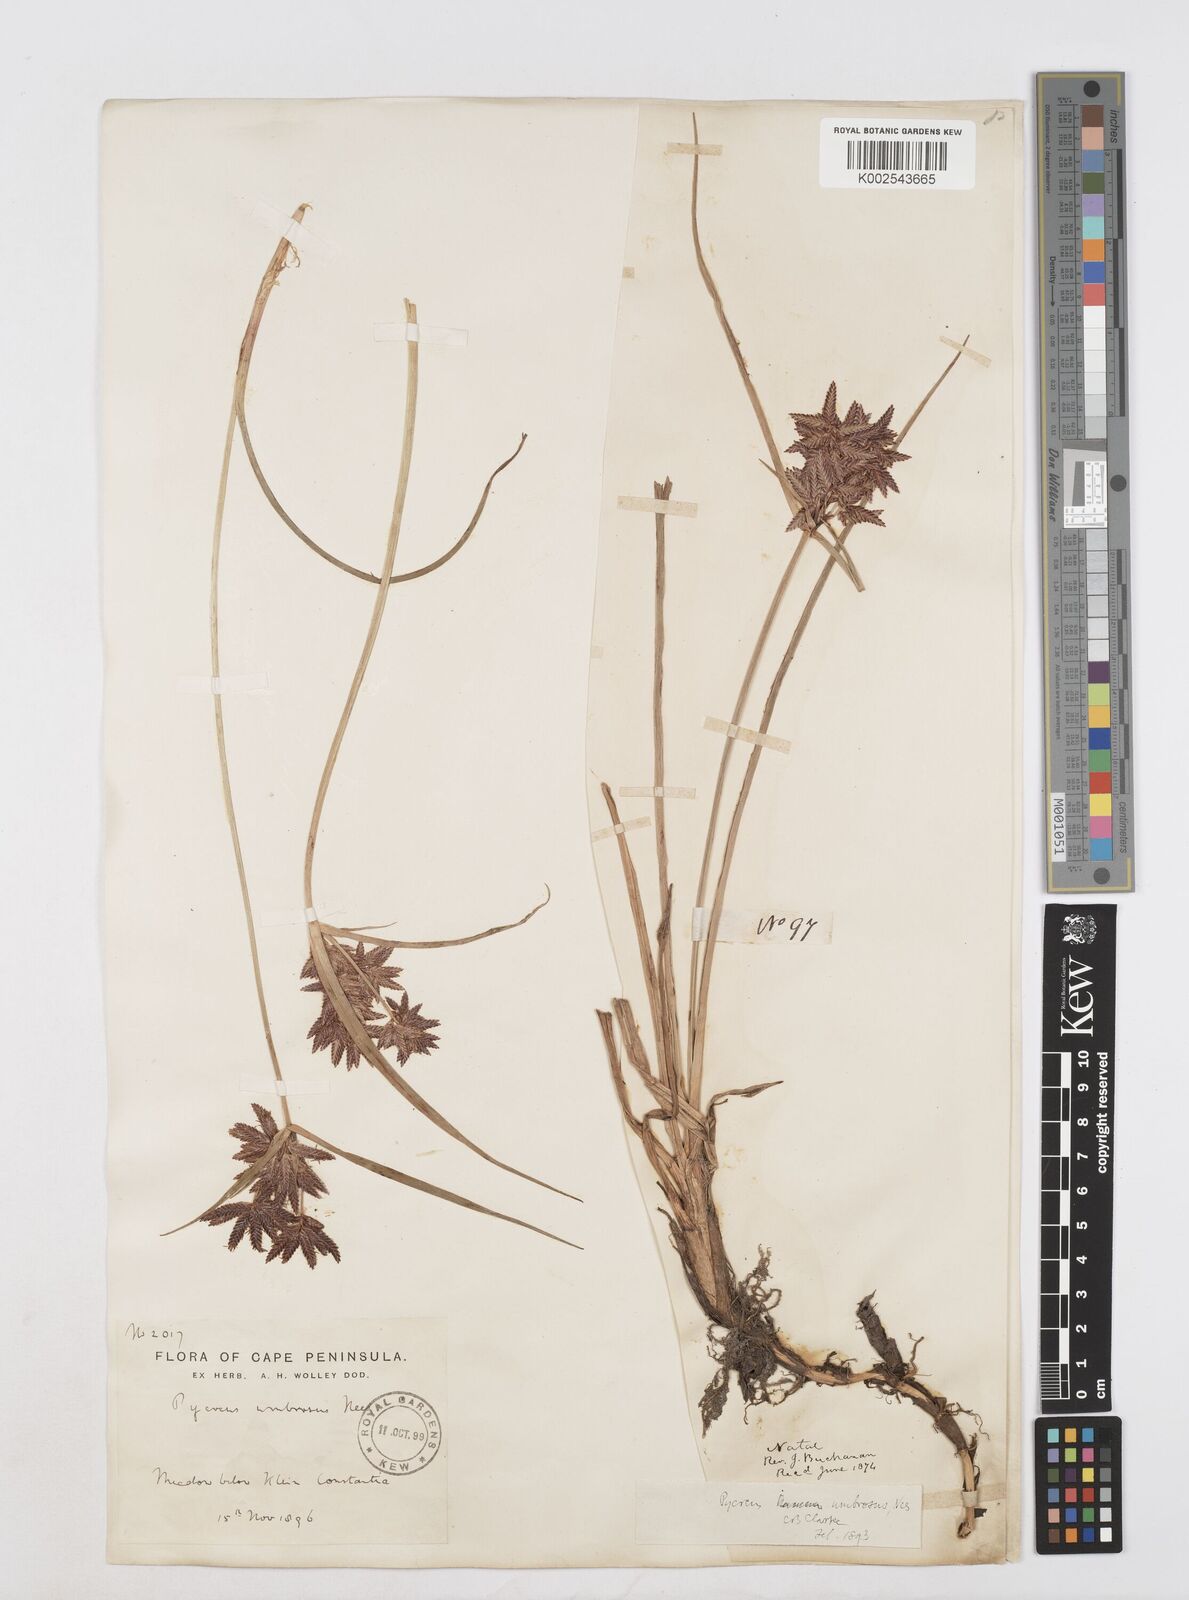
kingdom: Plantae
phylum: Tracheophyta
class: Liliopsida
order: Poales
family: Cyperaceae
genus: Cyperus
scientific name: Cyperus nitidus
